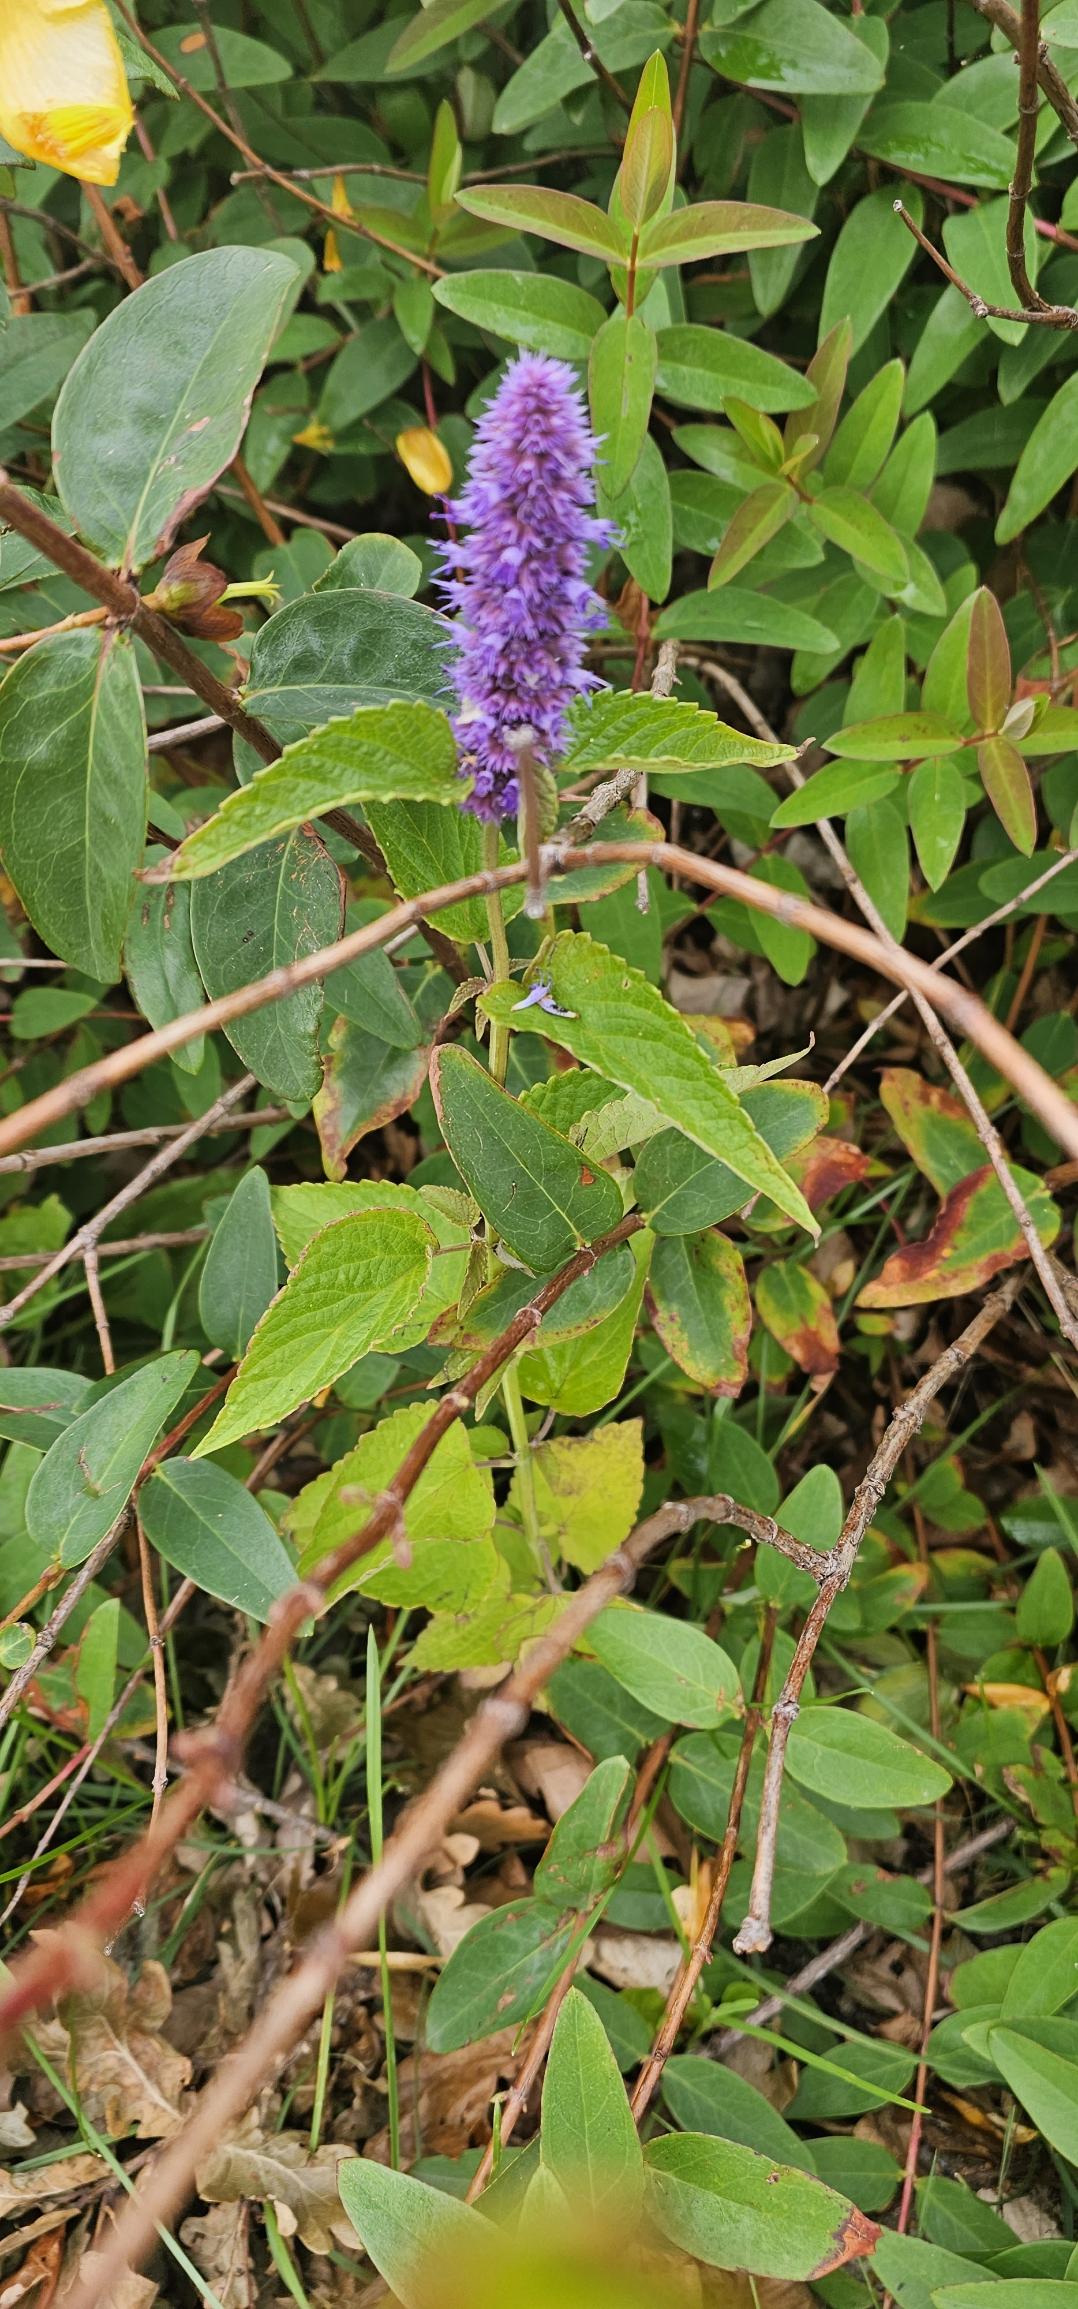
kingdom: Plantae
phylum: Tracheophyta
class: Magnoliopsida
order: Lamiales
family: Lamiaceae
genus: Agastache
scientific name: Agastache
